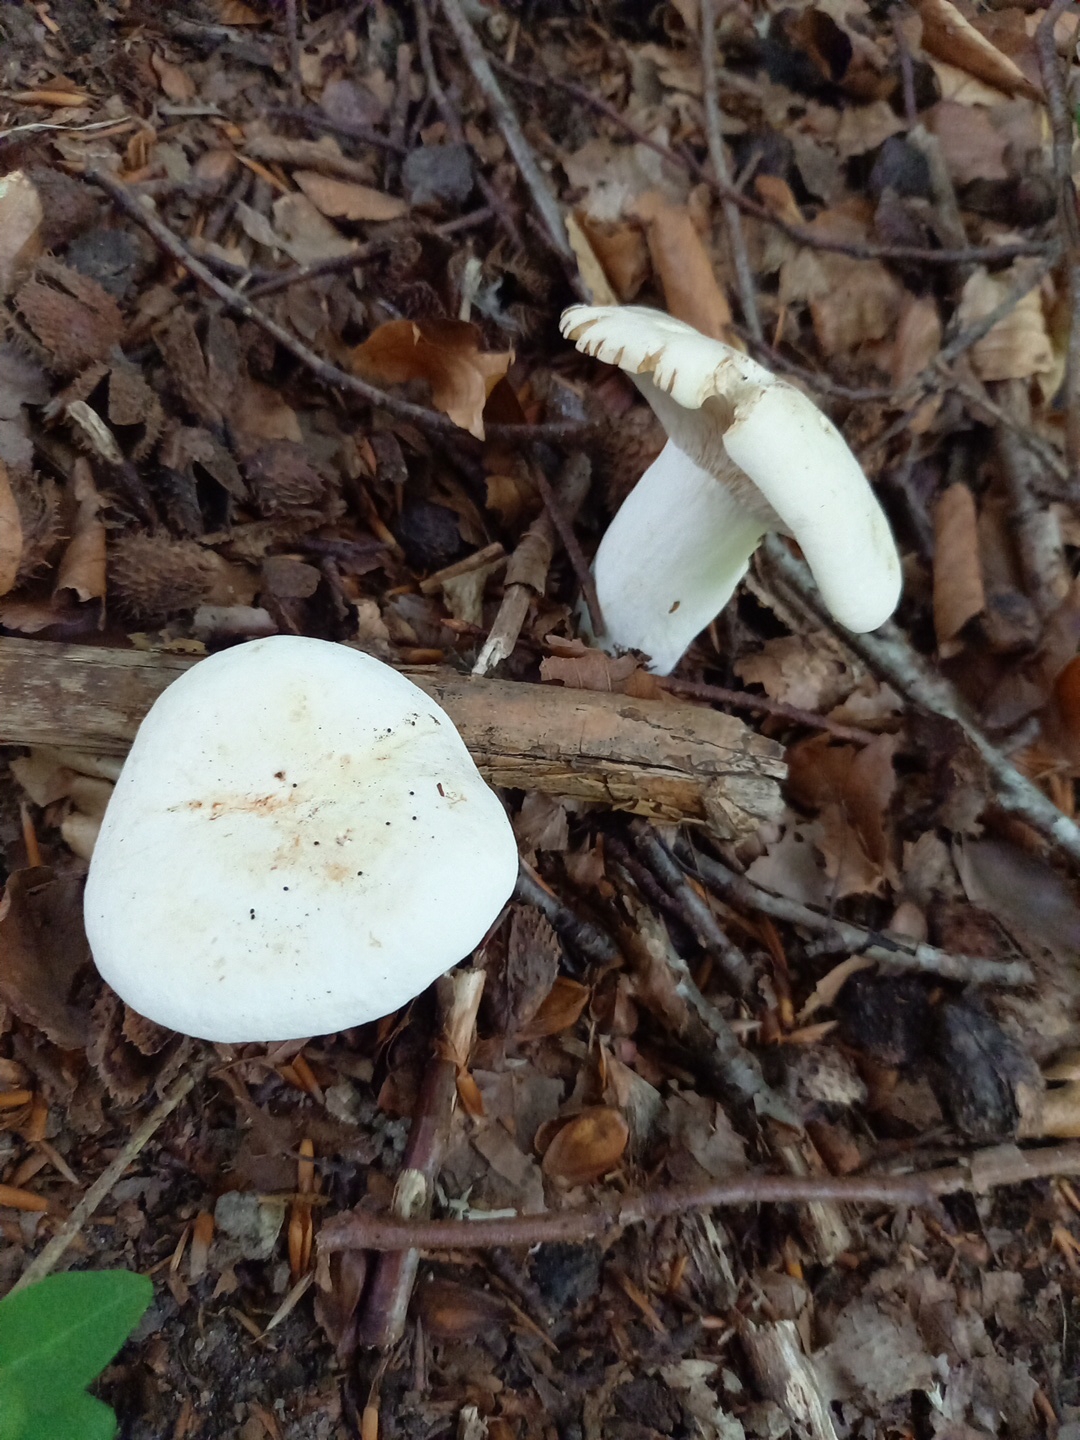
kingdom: Fungi
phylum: Basidiomycota
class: Agaricomycetes
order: Russulales
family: Russulaceae
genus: Lactifluus
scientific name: Lactifluus piperatus
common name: peber-mælkehat
